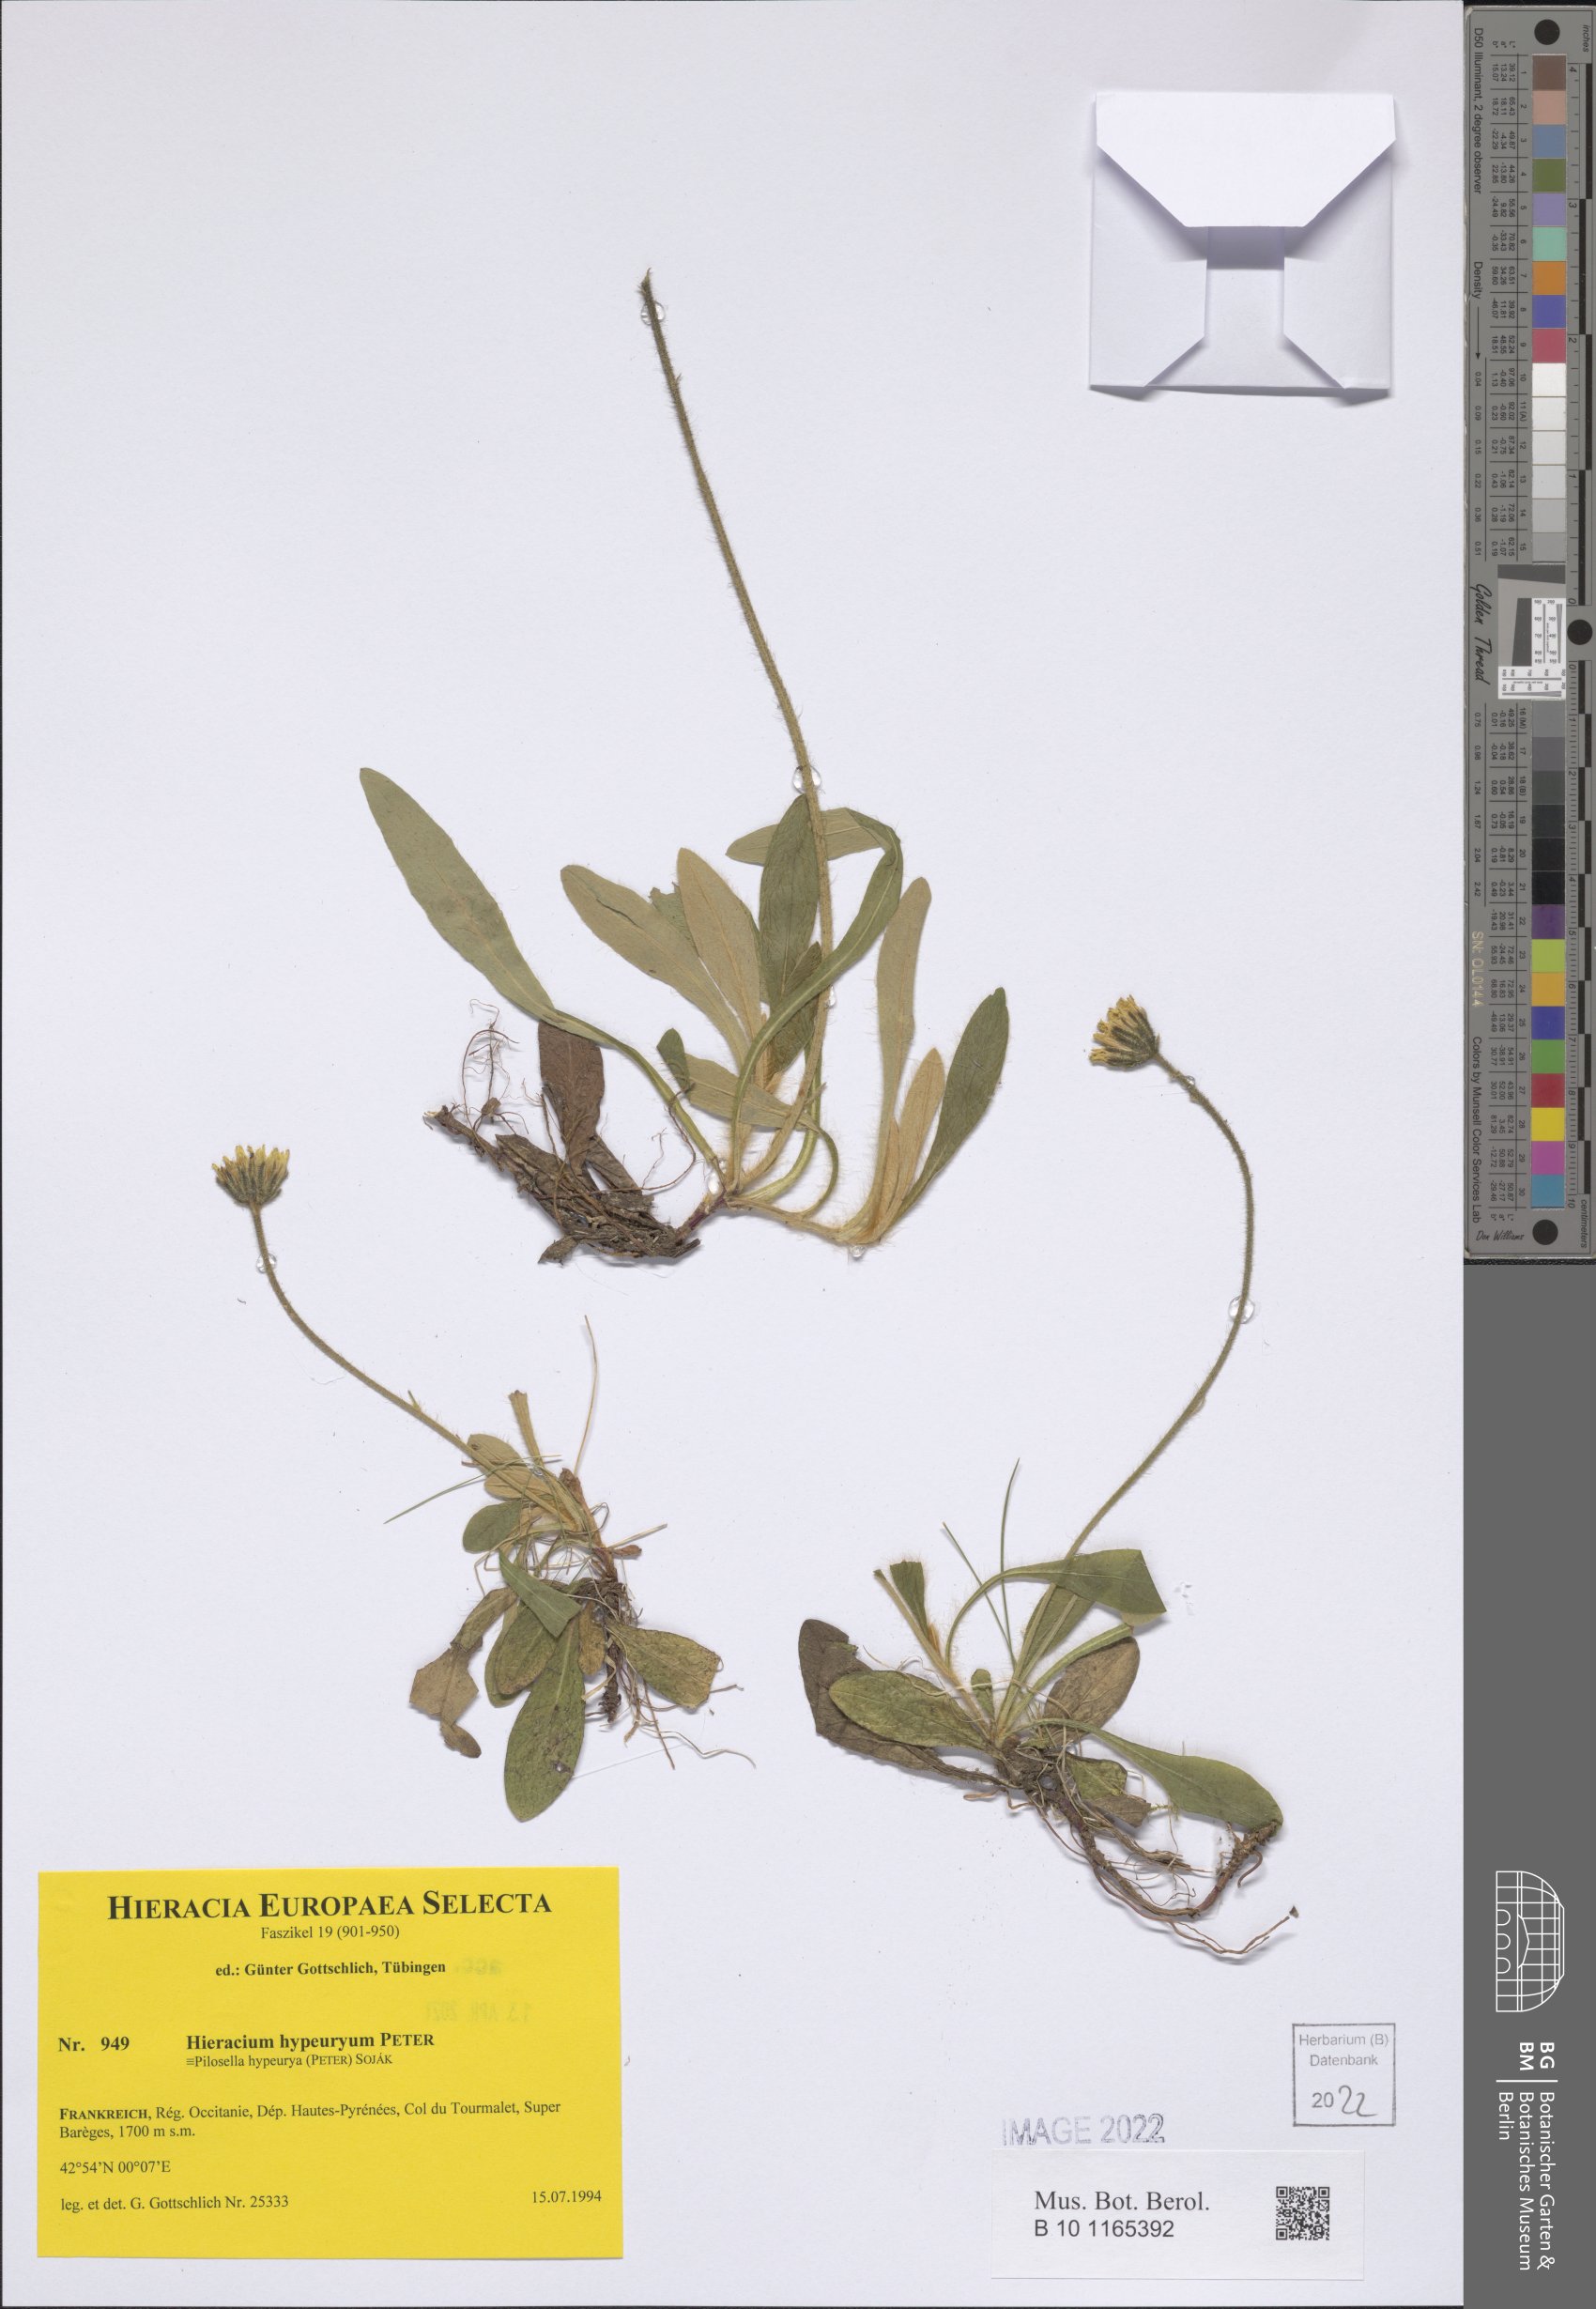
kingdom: Plantae
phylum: Tracheophyta
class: Magnoliopsida
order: Asterales
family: Asteraceae
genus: Pilosella
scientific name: Pilosella hypeurya
